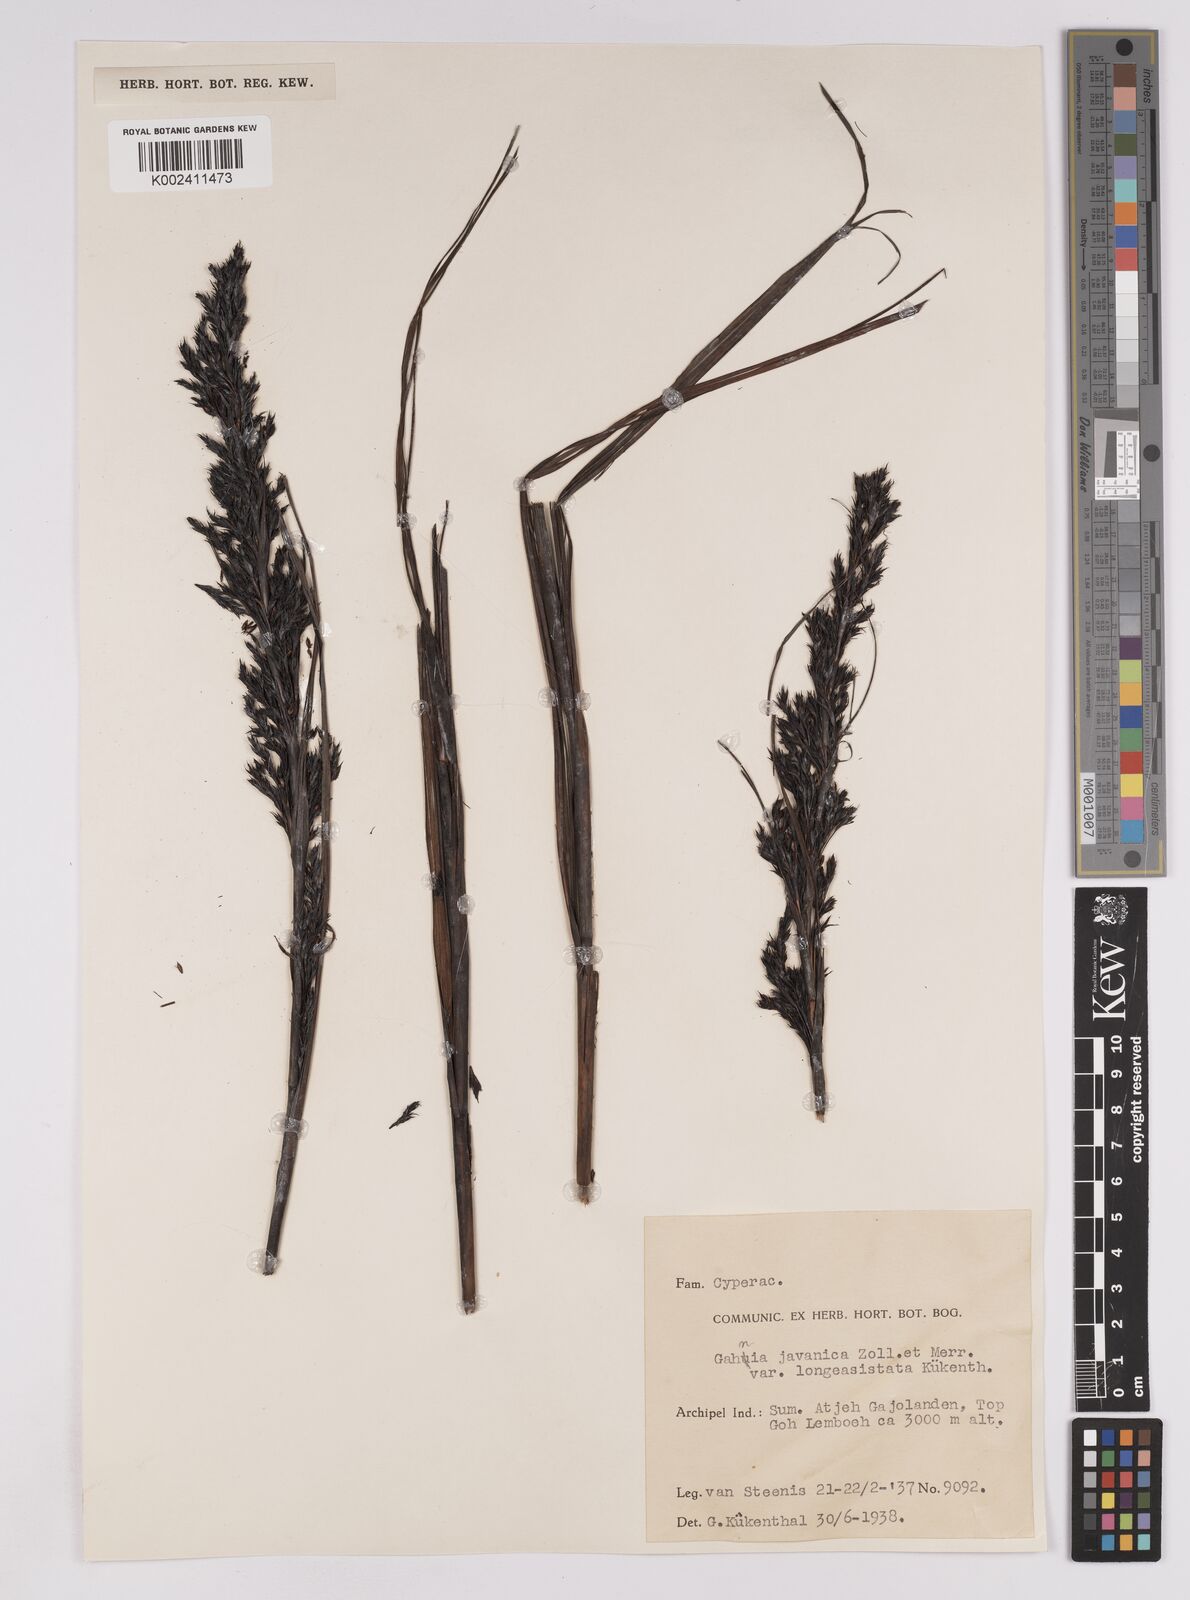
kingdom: Plantae
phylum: Tracheophyta
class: Liliopsida
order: Poales
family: Cyperaceae
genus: Gahnia
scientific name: Gahnia javanica
